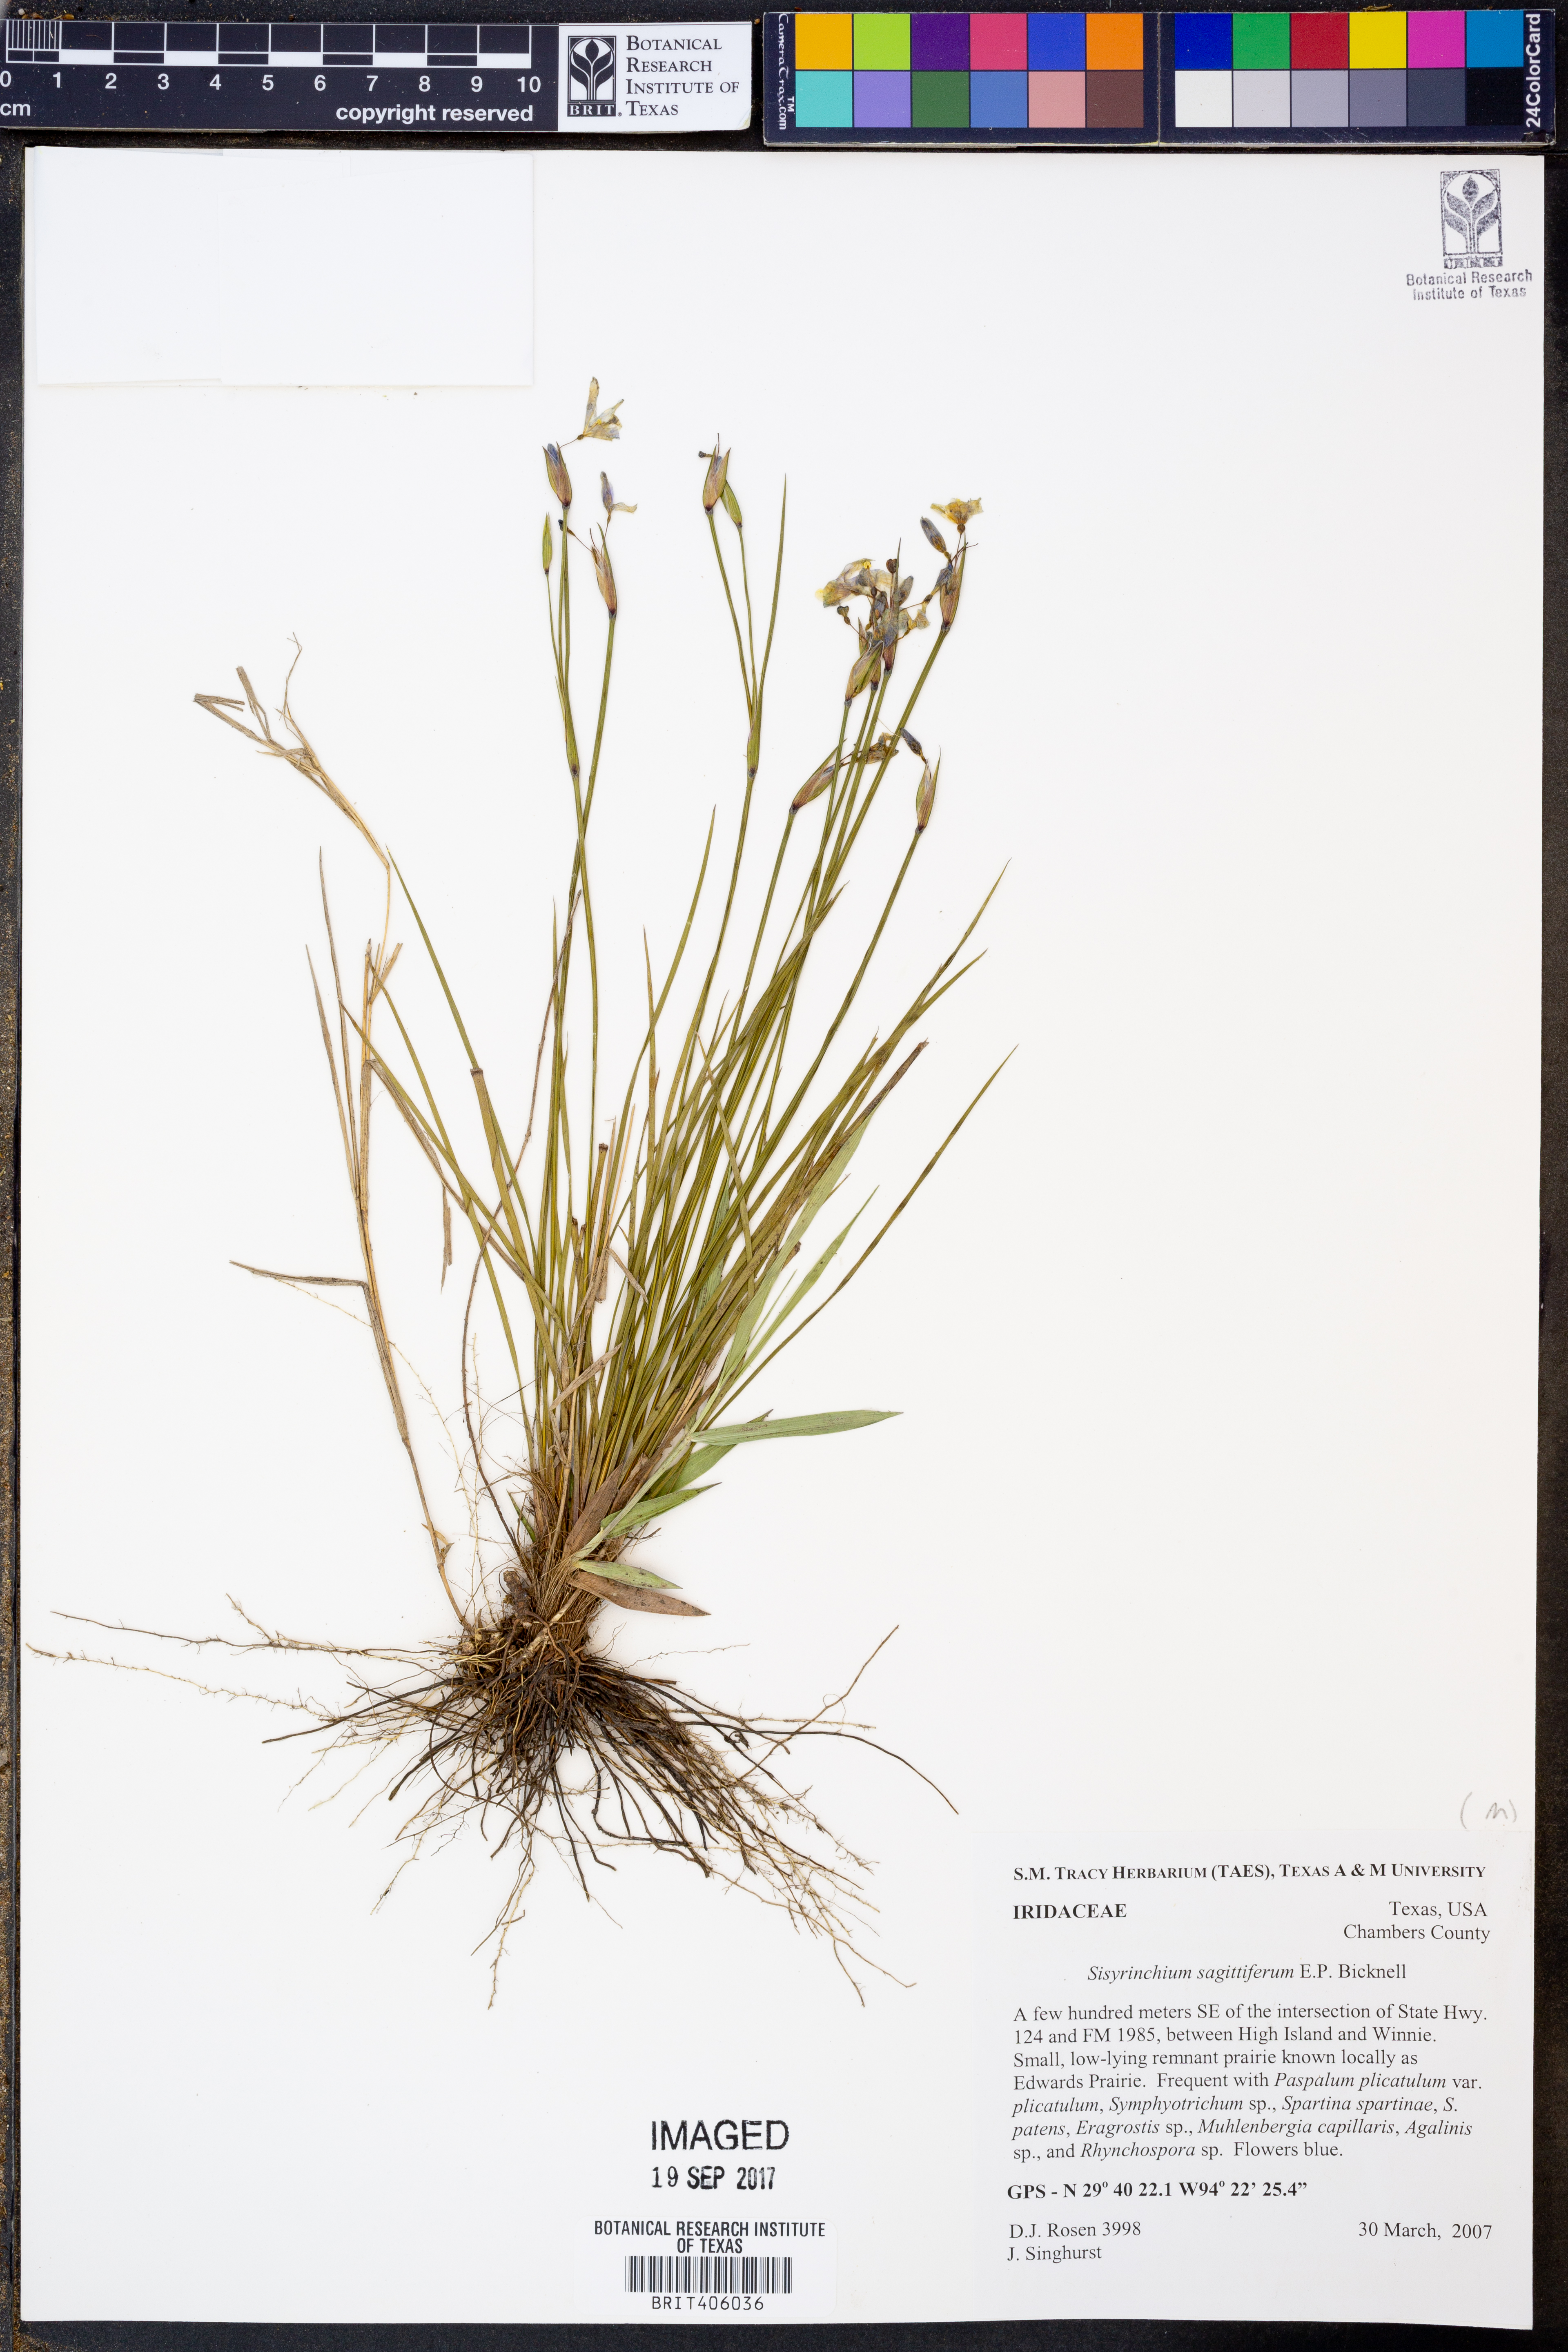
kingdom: Plantae
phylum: Tracheophyta
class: Liliopsida
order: Asparagales
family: Iridaceae
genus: Sisyrinchium
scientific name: Sisyrinchium sagittiferum
